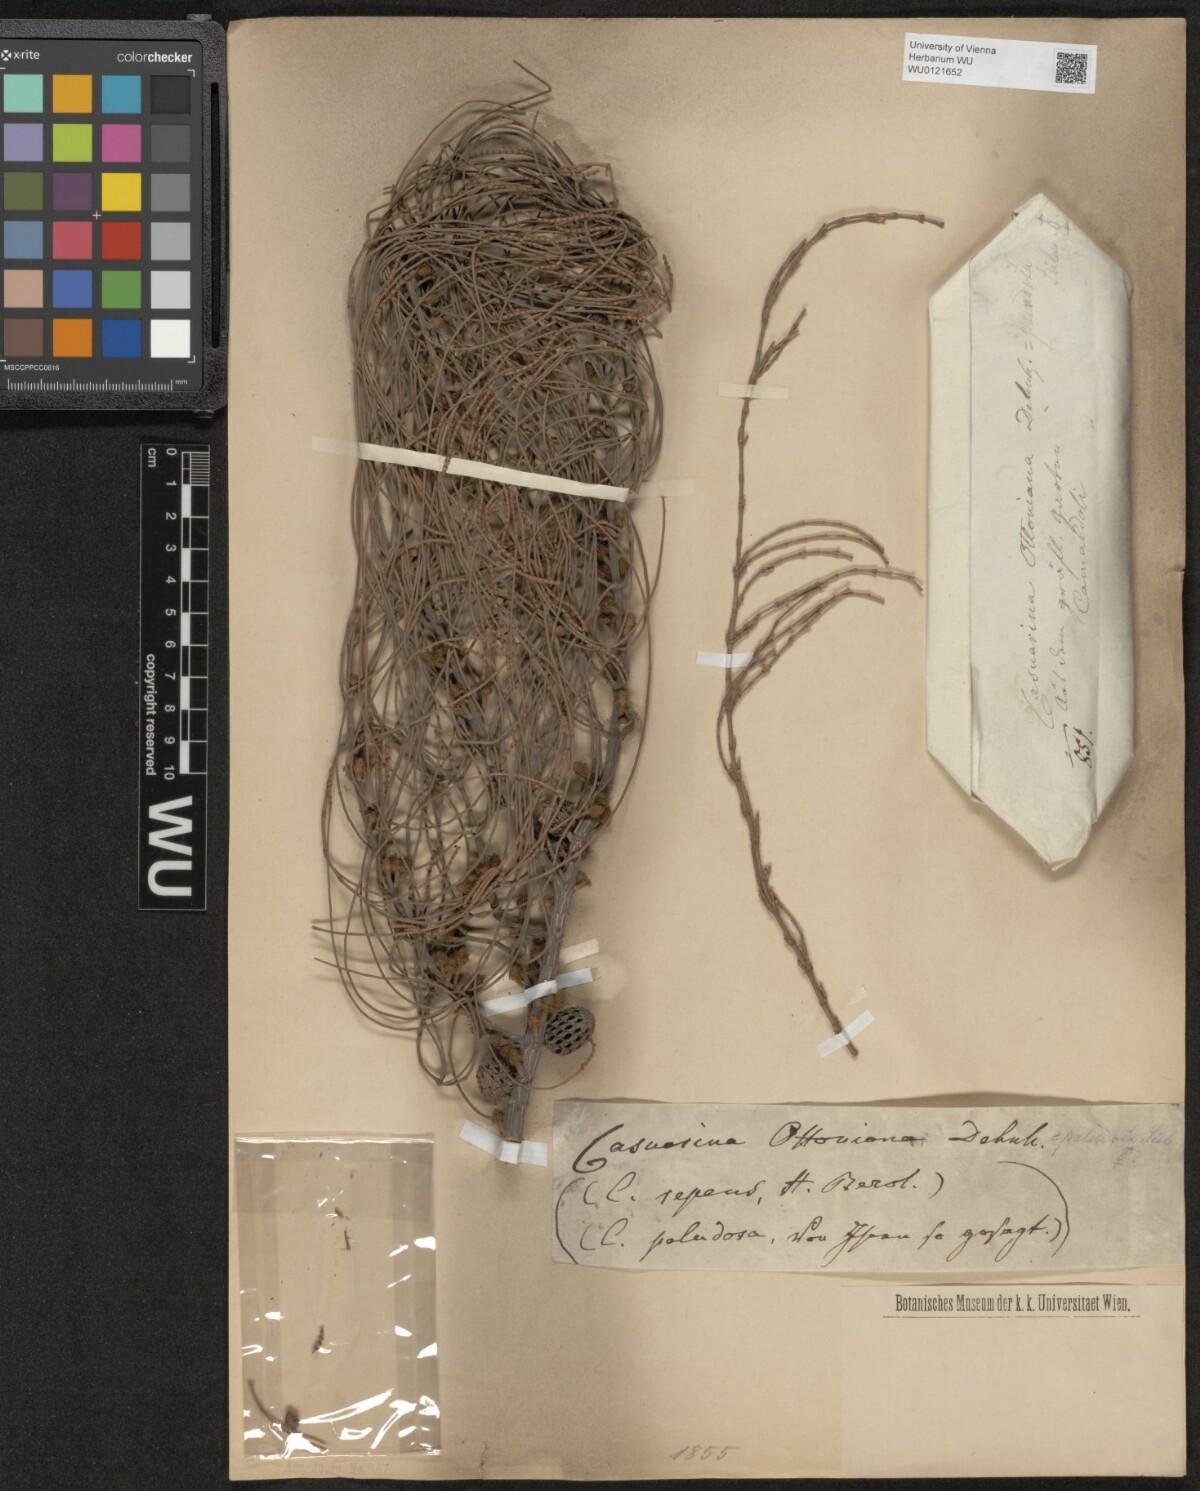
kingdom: Plantae
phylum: Tracheophyta
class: Magnoliopsida
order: Fagales
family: Casuarinaceae
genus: Casuarina
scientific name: Casuarina
